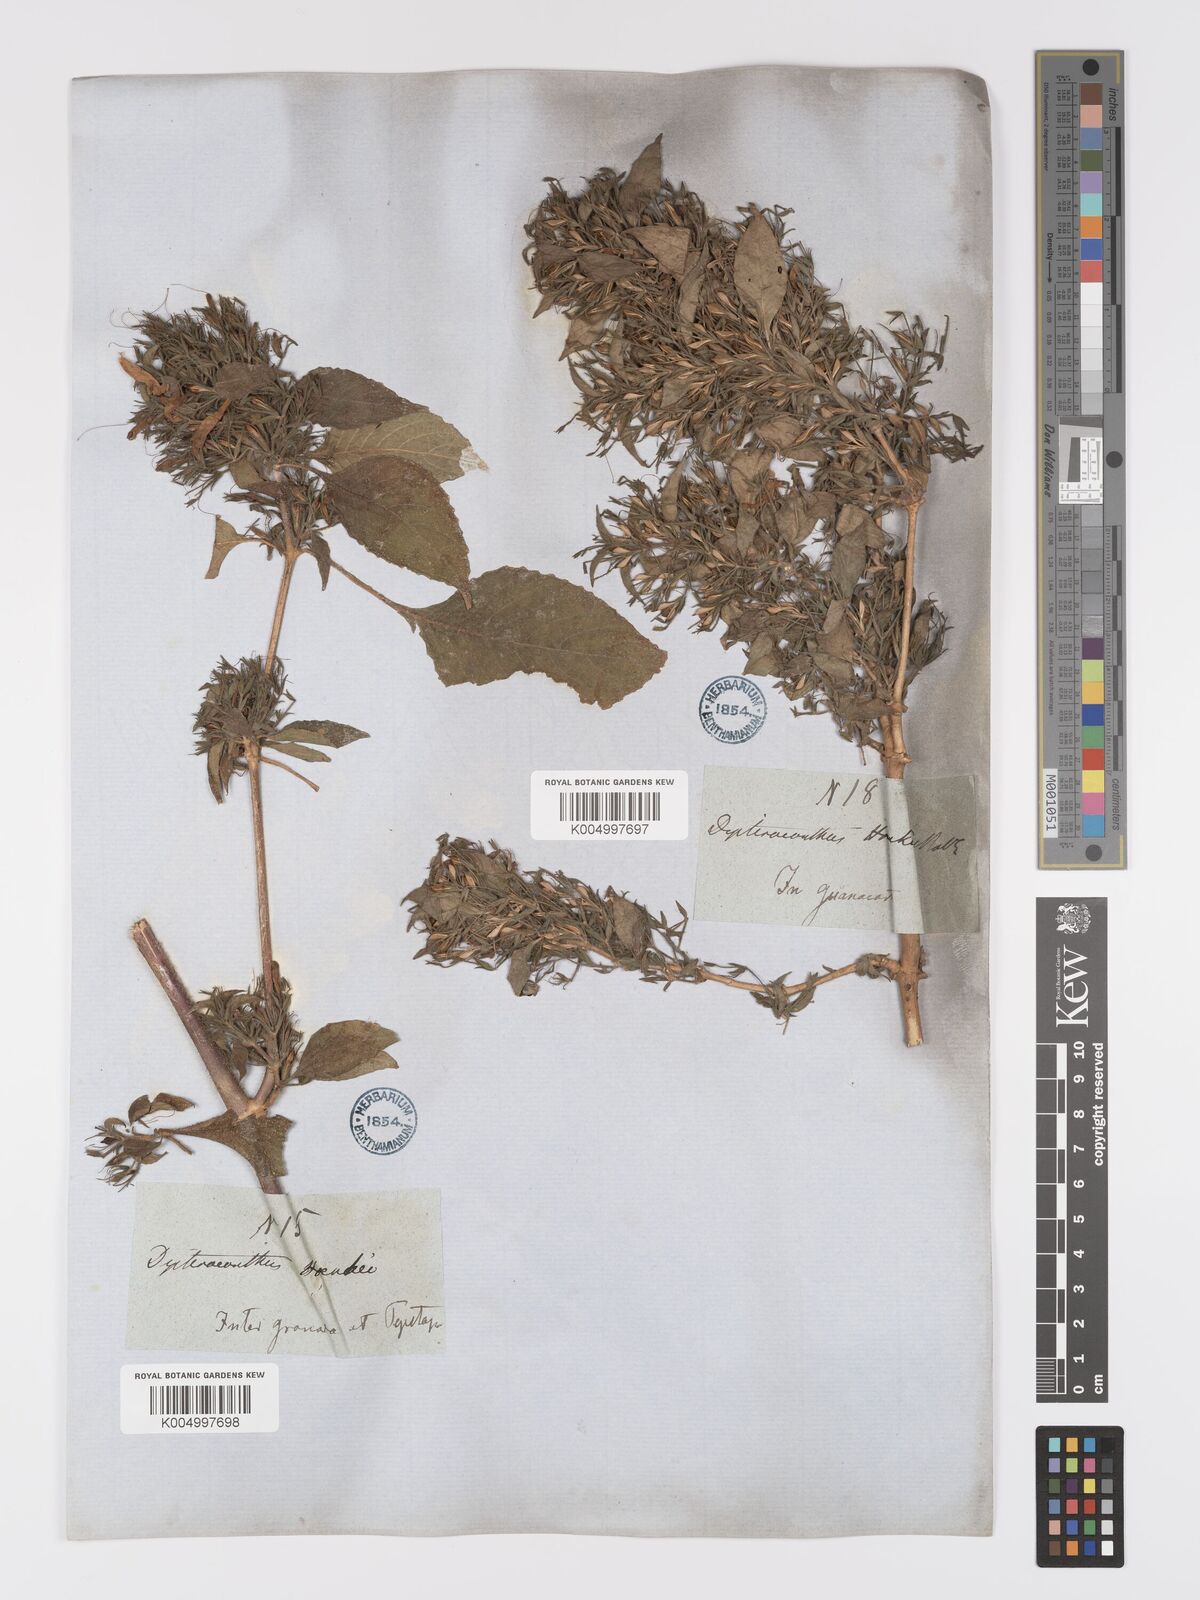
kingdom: Plantae
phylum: Tracheophyta
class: Magnoliopsida
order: Lamiales
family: Acanthaceae
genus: Ruellia
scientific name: Ruellia inundata
